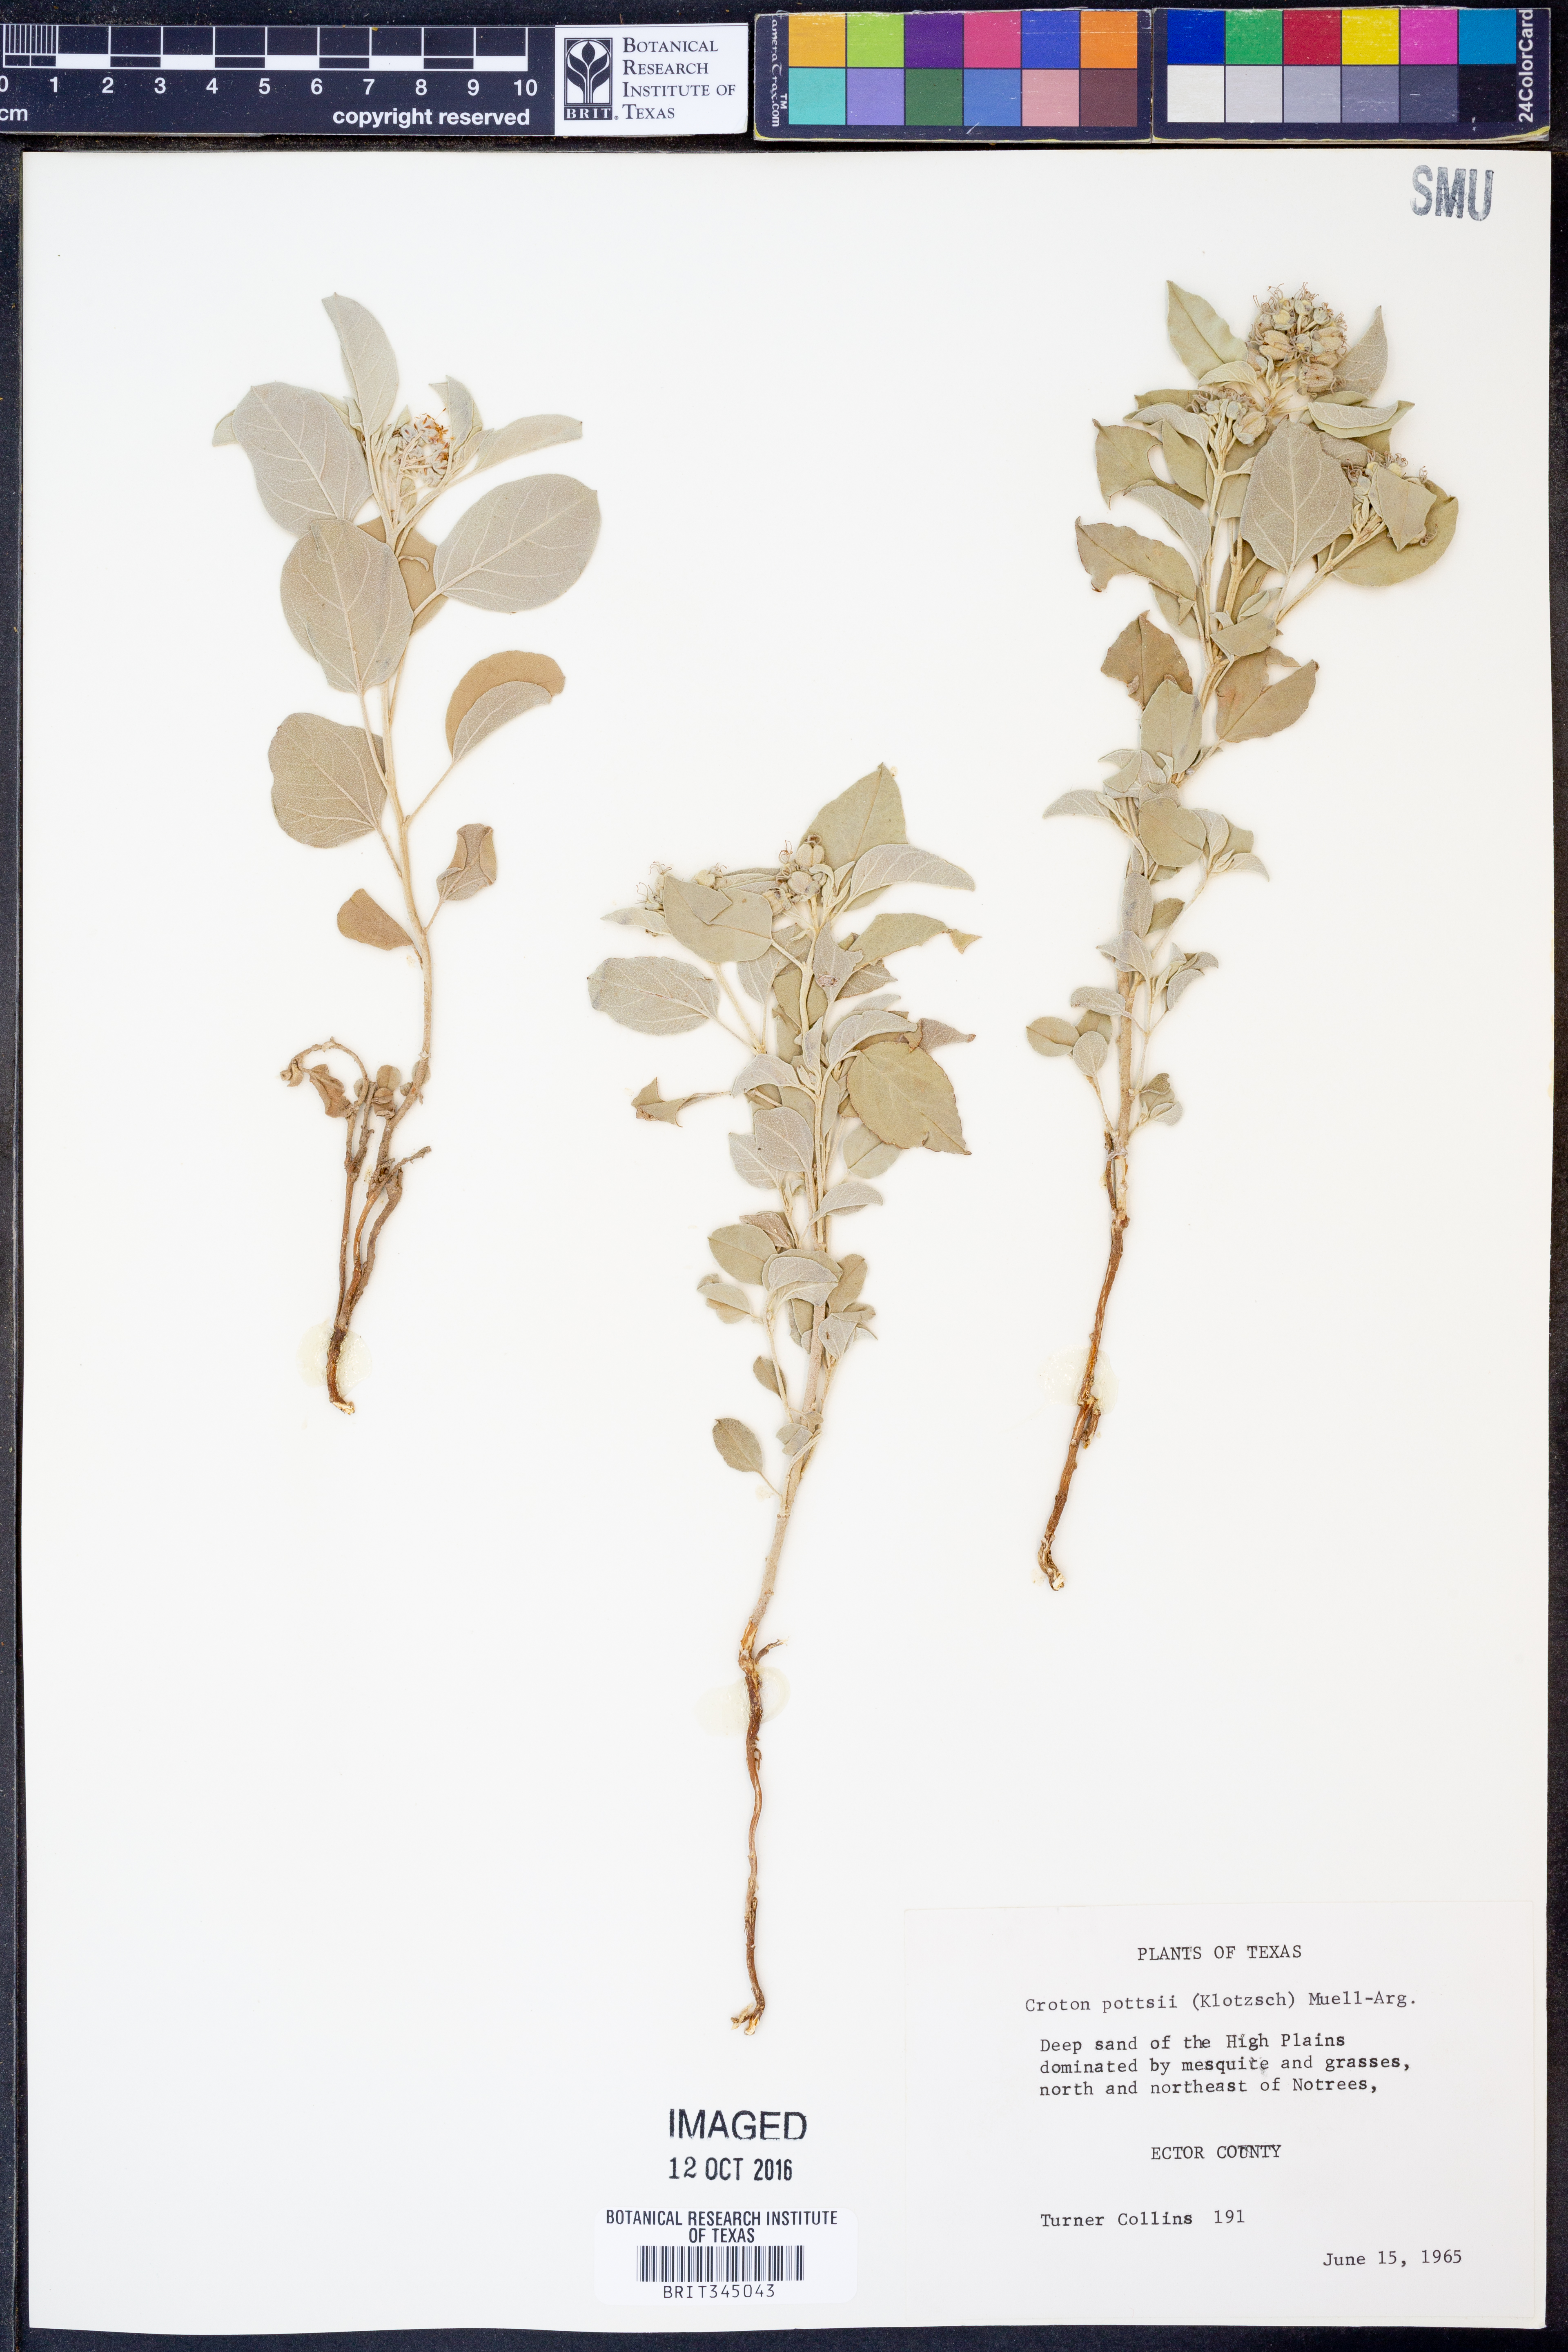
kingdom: Plantae
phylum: Tracheophyta
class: Magnoliopsida
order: Malpighiales
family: Euphorbiaceae
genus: Croton
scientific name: Croton pottsii
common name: Leatherweed
